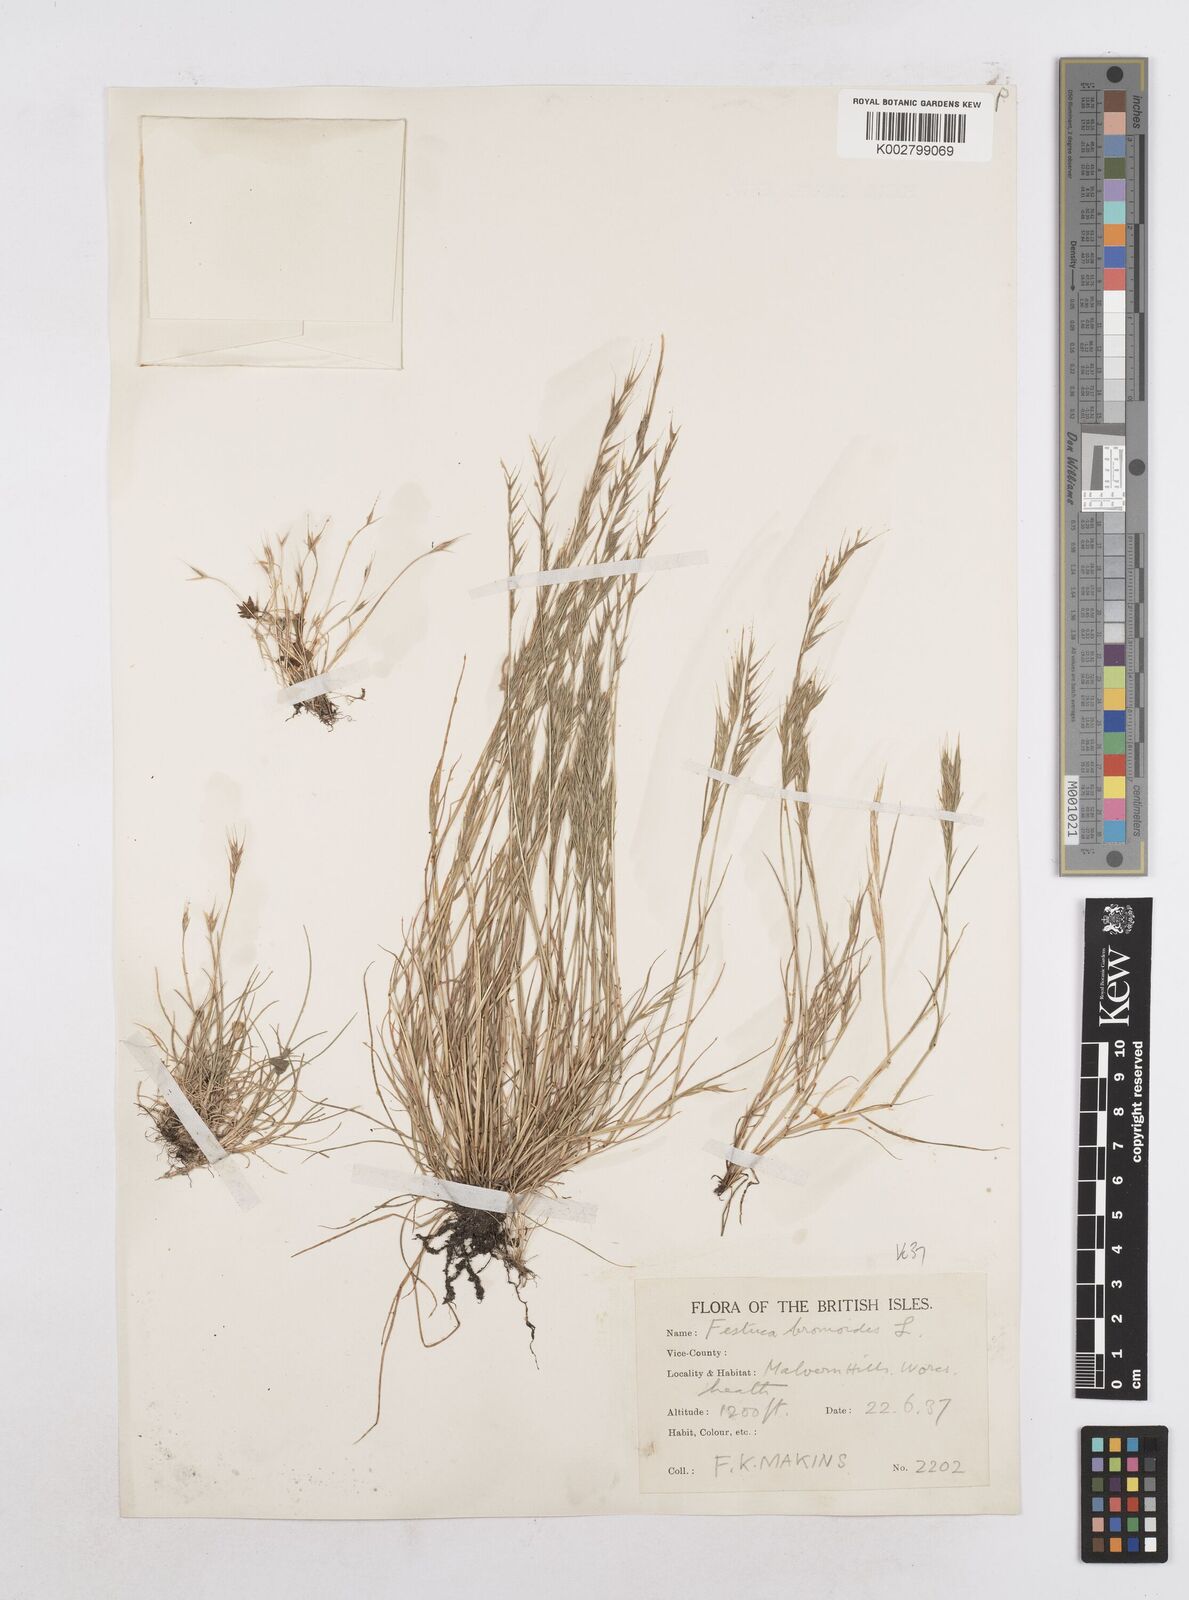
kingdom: Plantae
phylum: Tracheophyta
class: Liliopsida
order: Poales
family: Poaceae
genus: Festuca
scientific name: Festuca bromoides
